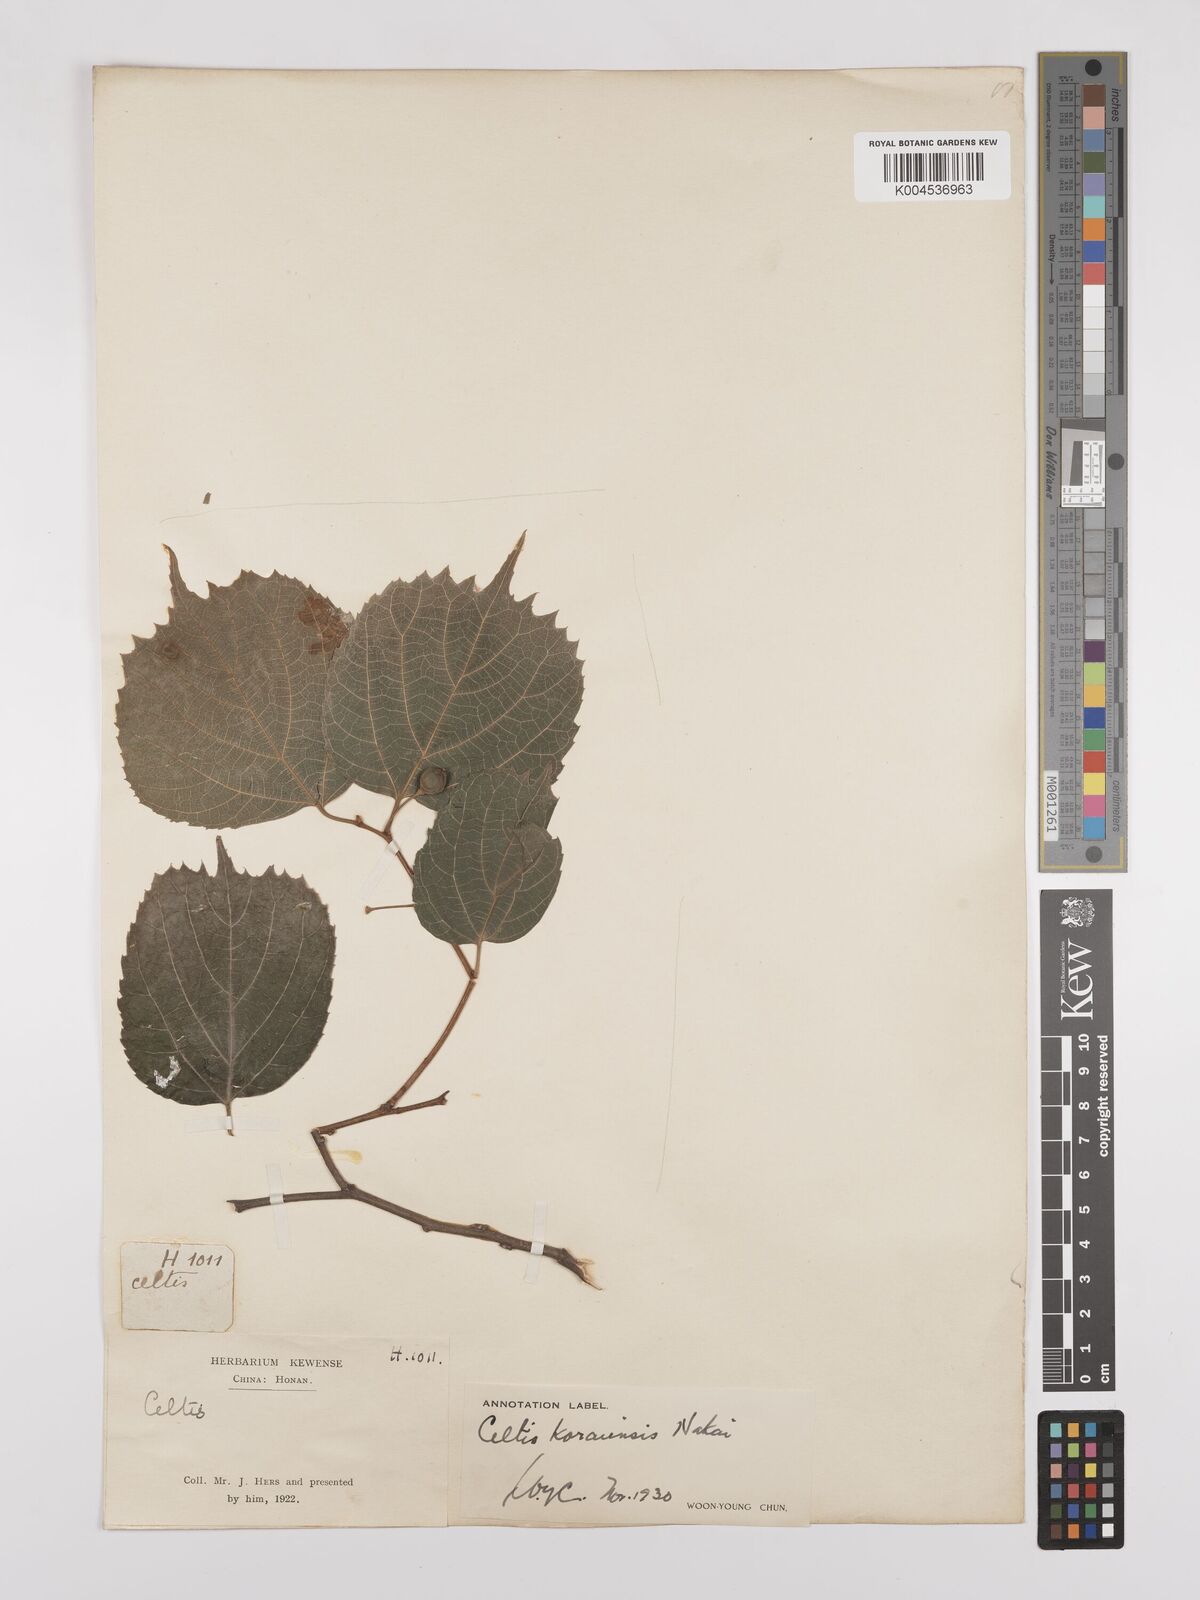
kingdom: Plantae
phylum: Tracheophyta
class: Magnoliopsida
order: Rosales
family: Cannabaceae
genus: Celtis
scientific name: Celtis koraiensis
